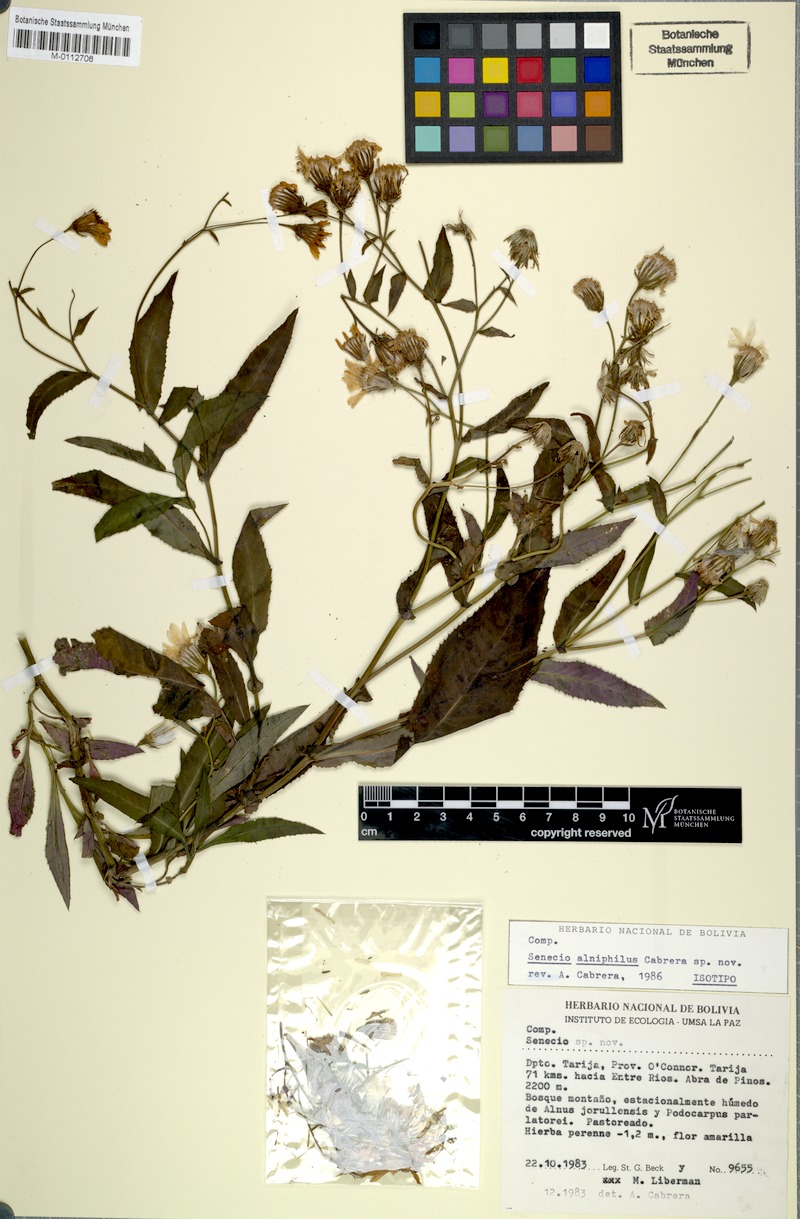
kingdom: Plantae
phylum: Tracheophyta
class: Magnoliopsida
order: Asterales
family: Asteraceae
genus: Senecio
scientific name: Senecio alniphilus
